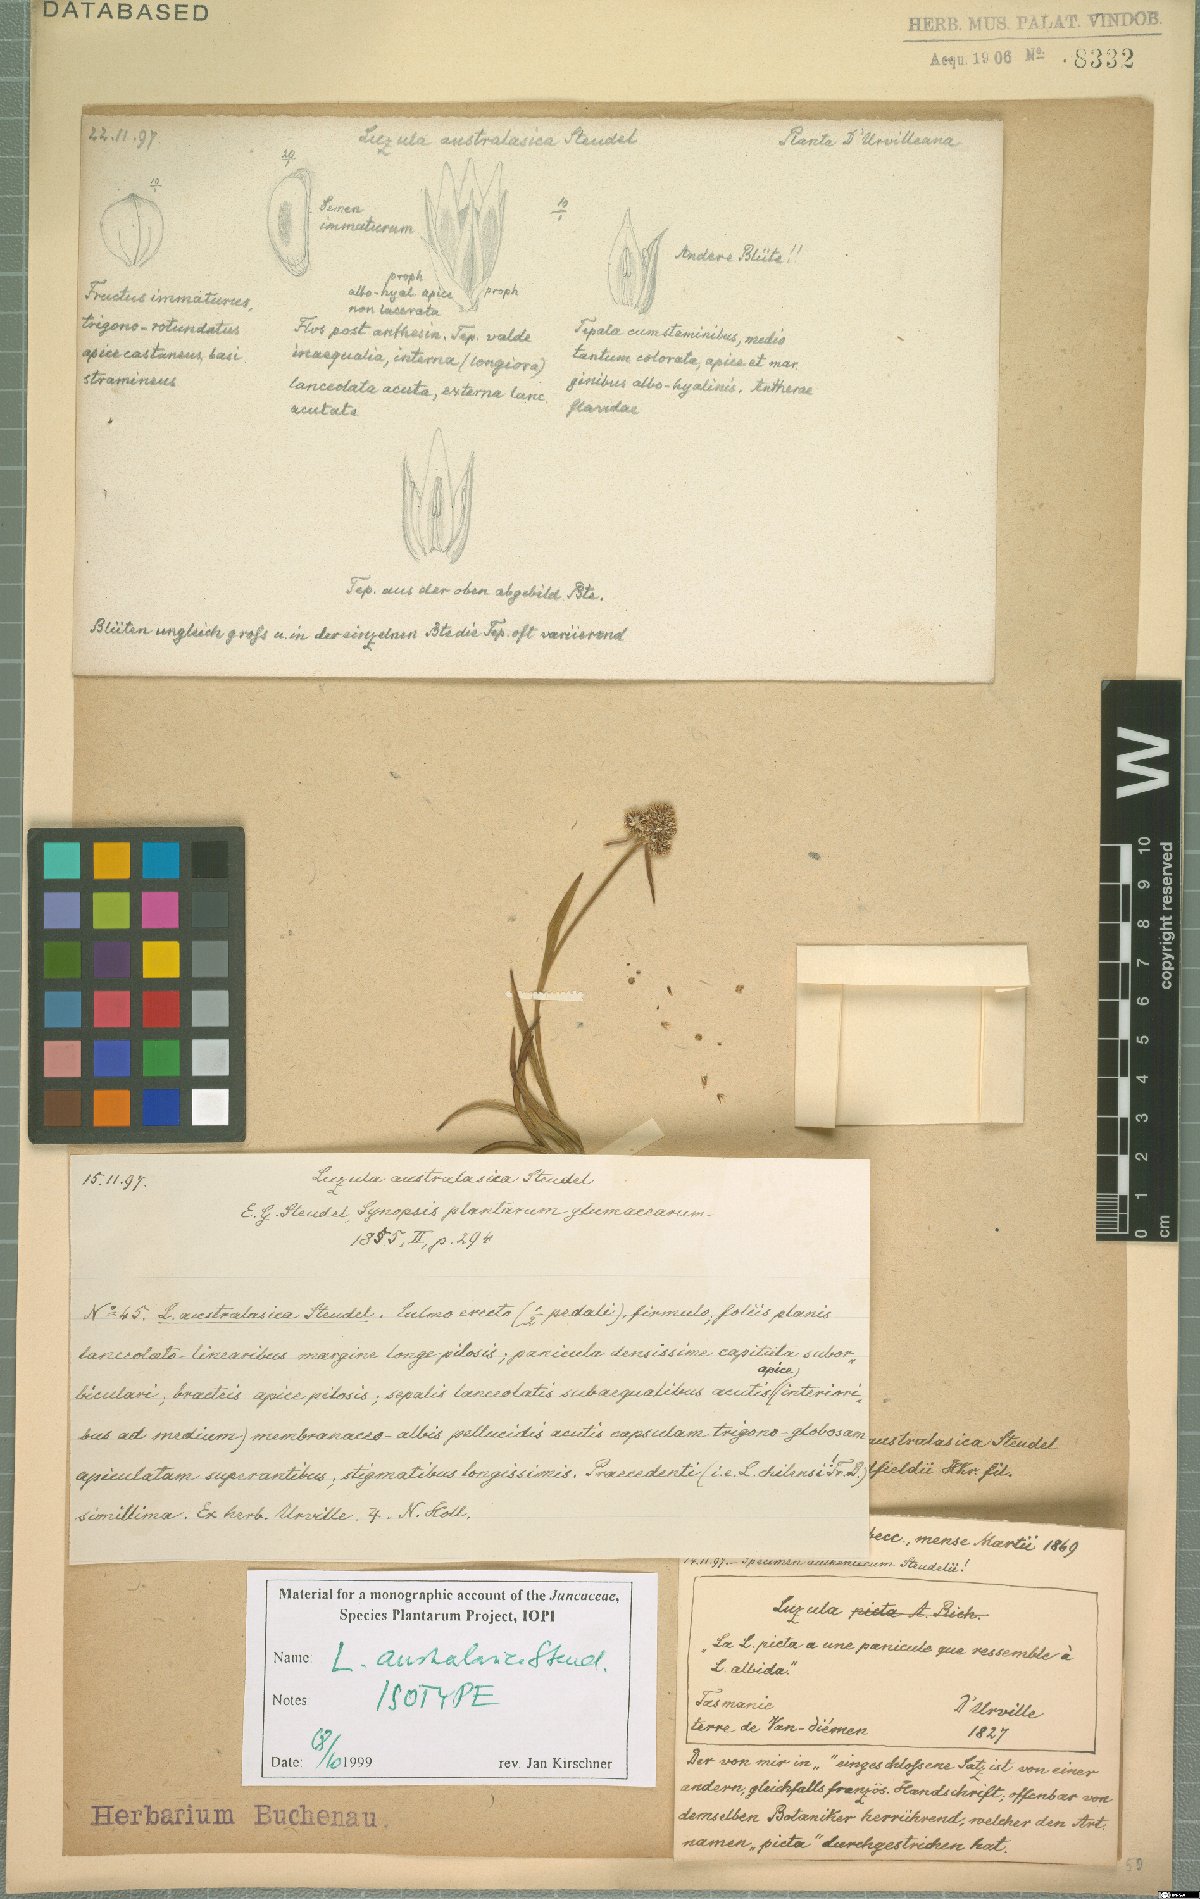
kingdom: Plantae
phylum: Tracheophyta
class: Liliopsida
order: Poales
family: Juncaceae
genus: Luzula
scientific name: Luzula australasica
